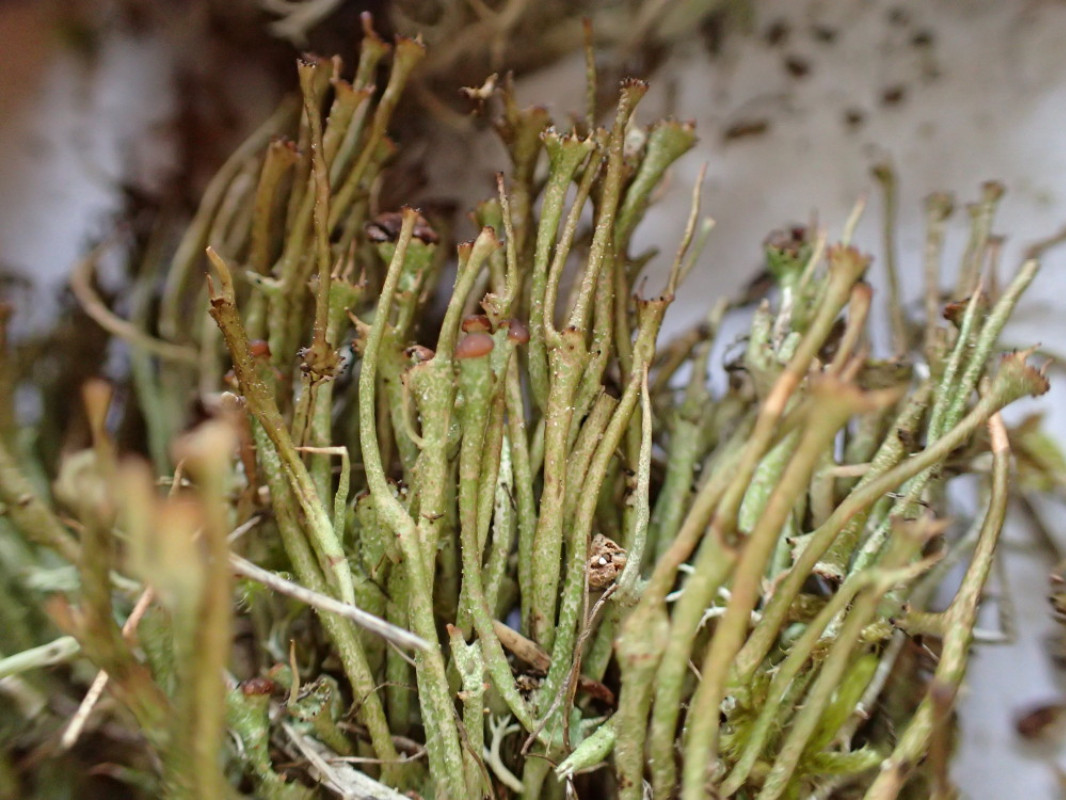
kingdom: Fungi
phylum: Ascomycota
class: Lecanoromycetes
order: Lecanorales
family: Cladoniaceae
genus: Cladonia
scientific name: Cladonia gracilis
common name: slank bægerlav
